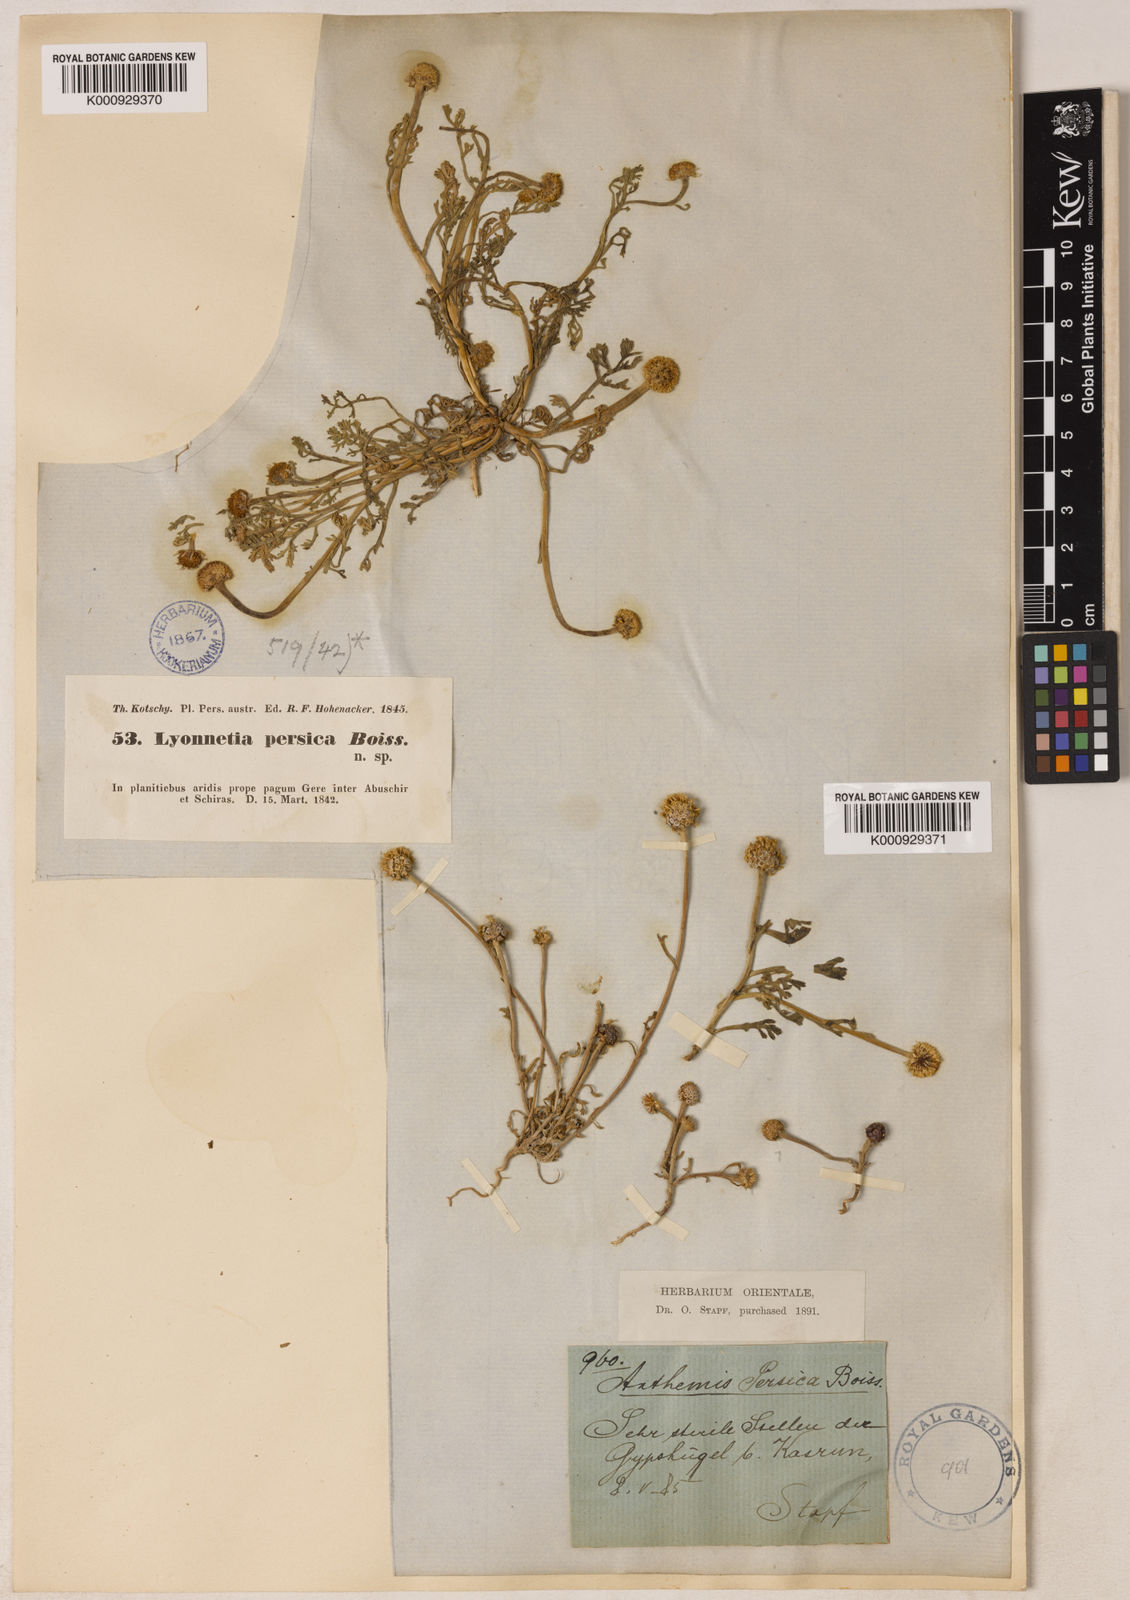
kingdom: Plantae
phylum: Tracheophyta
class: Magnoliopsida
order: Asterales
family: Asteraceae
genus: Anthemis
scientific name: Anthemis persica
